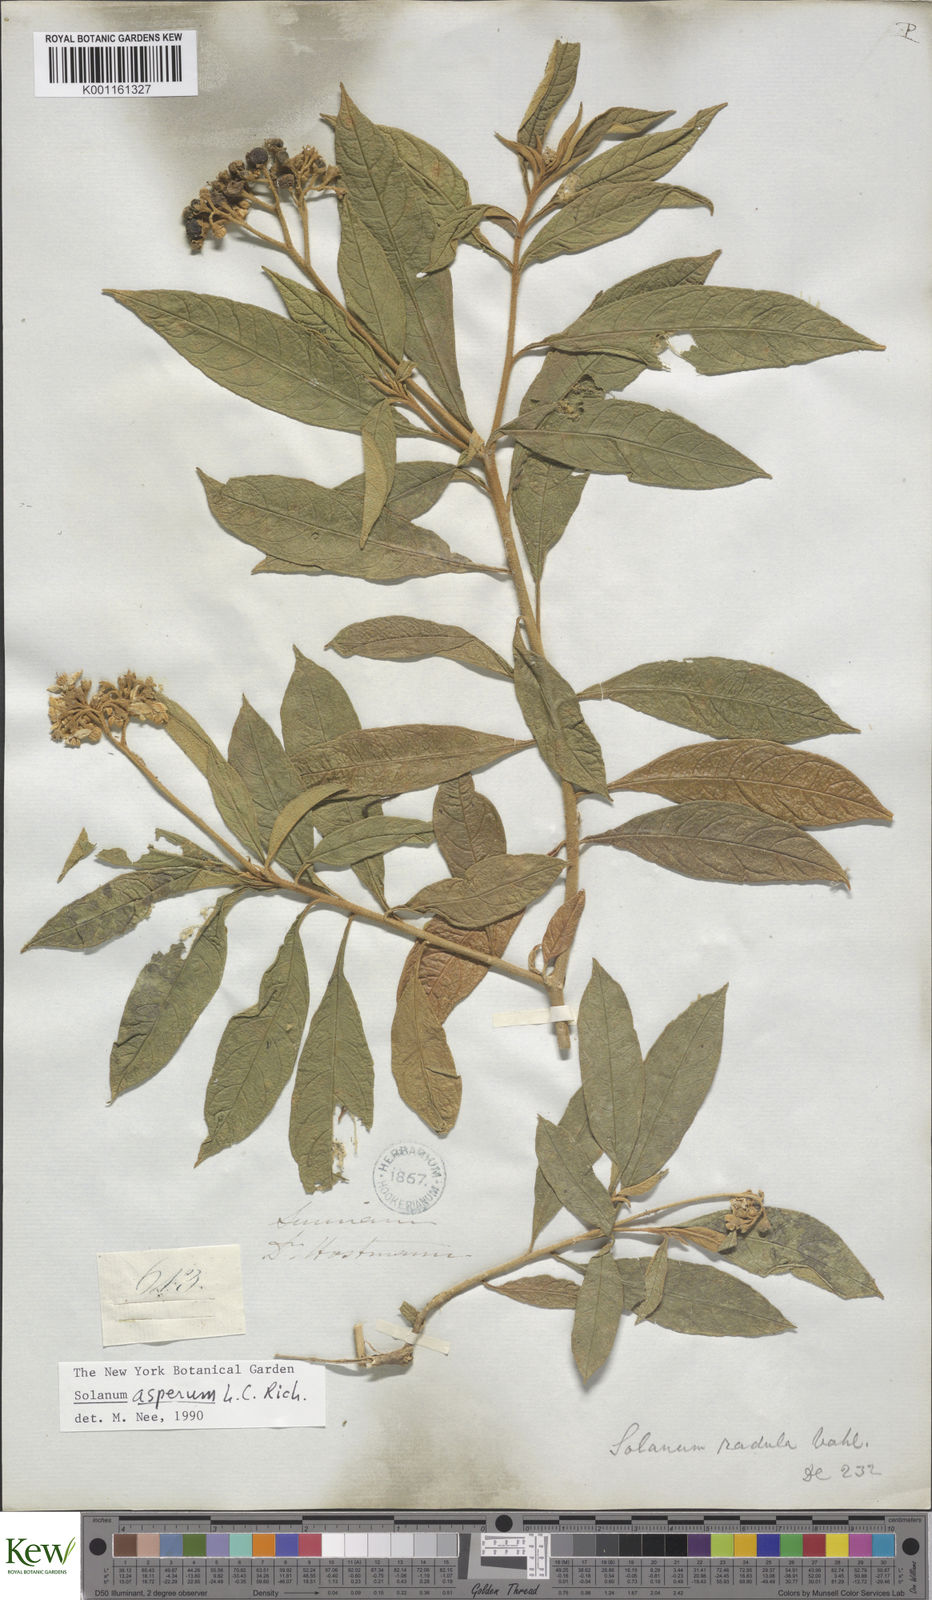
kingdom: Plantae
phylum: Tracheophyta
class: Magnoliopsida
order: Solanales
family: Solanaceae
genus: Solanum
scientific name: Solanum asperum
